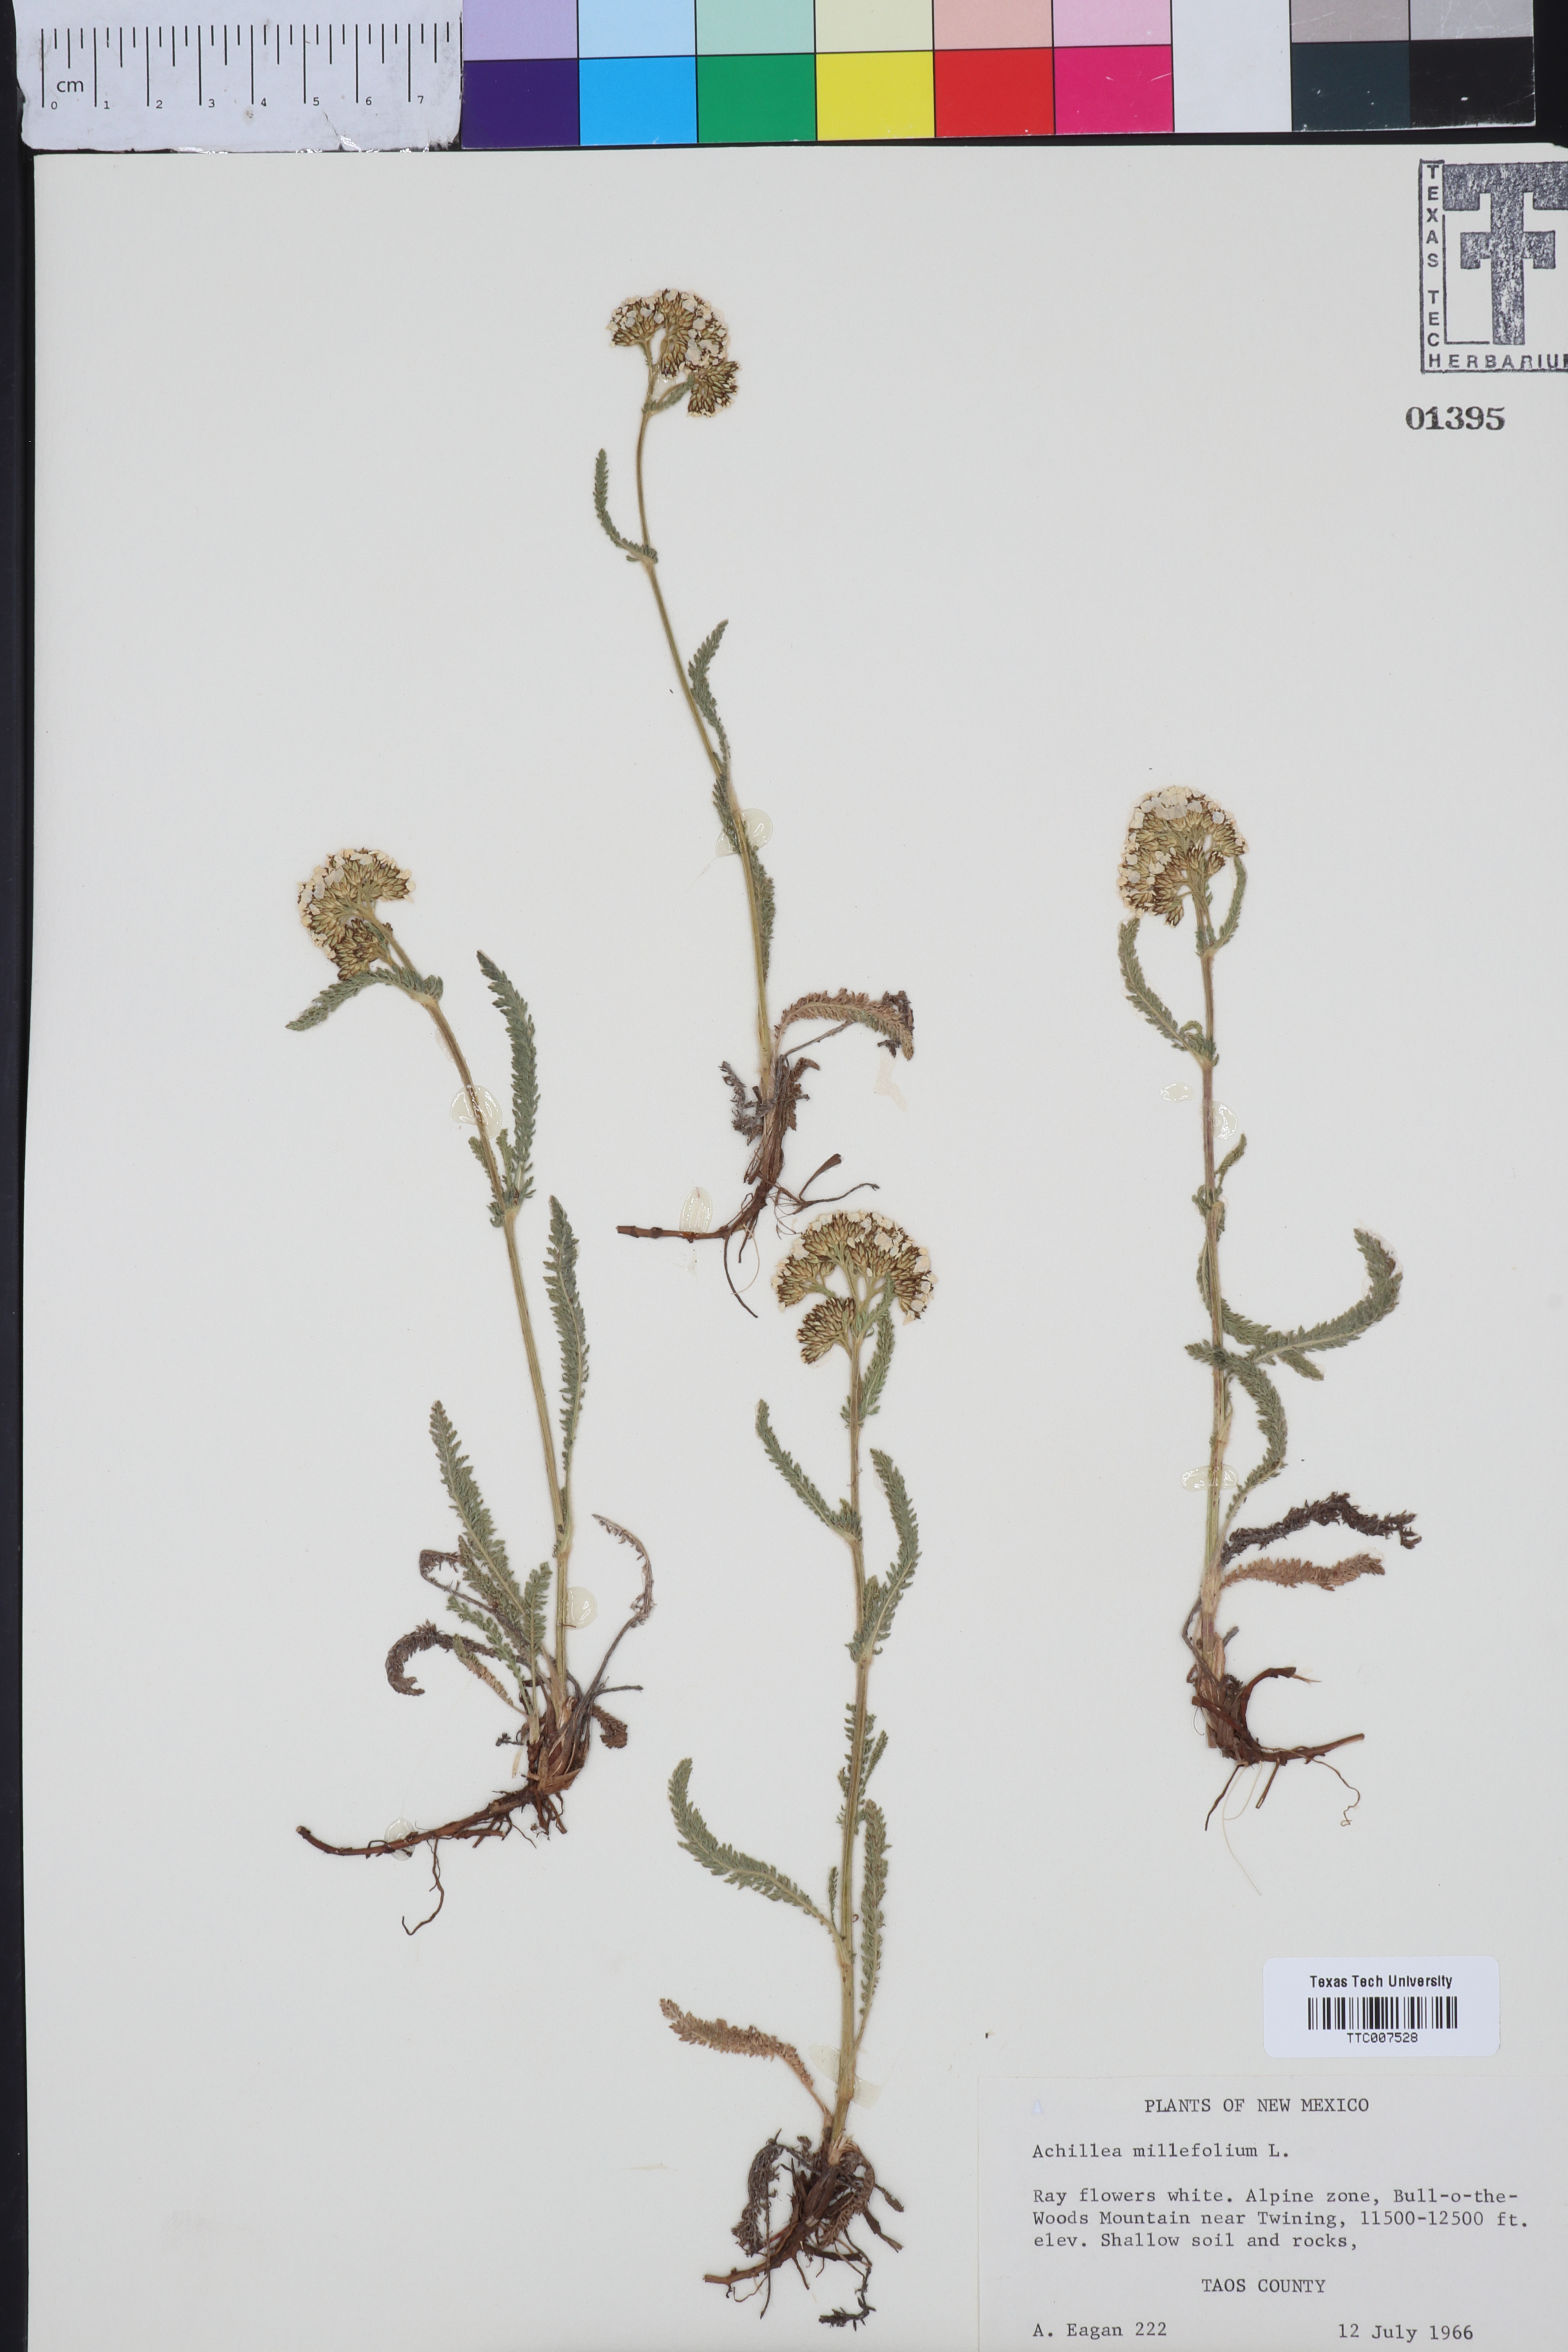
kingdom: Plantae
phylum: Tracheophyta
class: Magnoliopsida
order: Asterales
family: Asteraceae
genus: Achillea
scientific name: Achillea millefolium
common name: Yarrow
